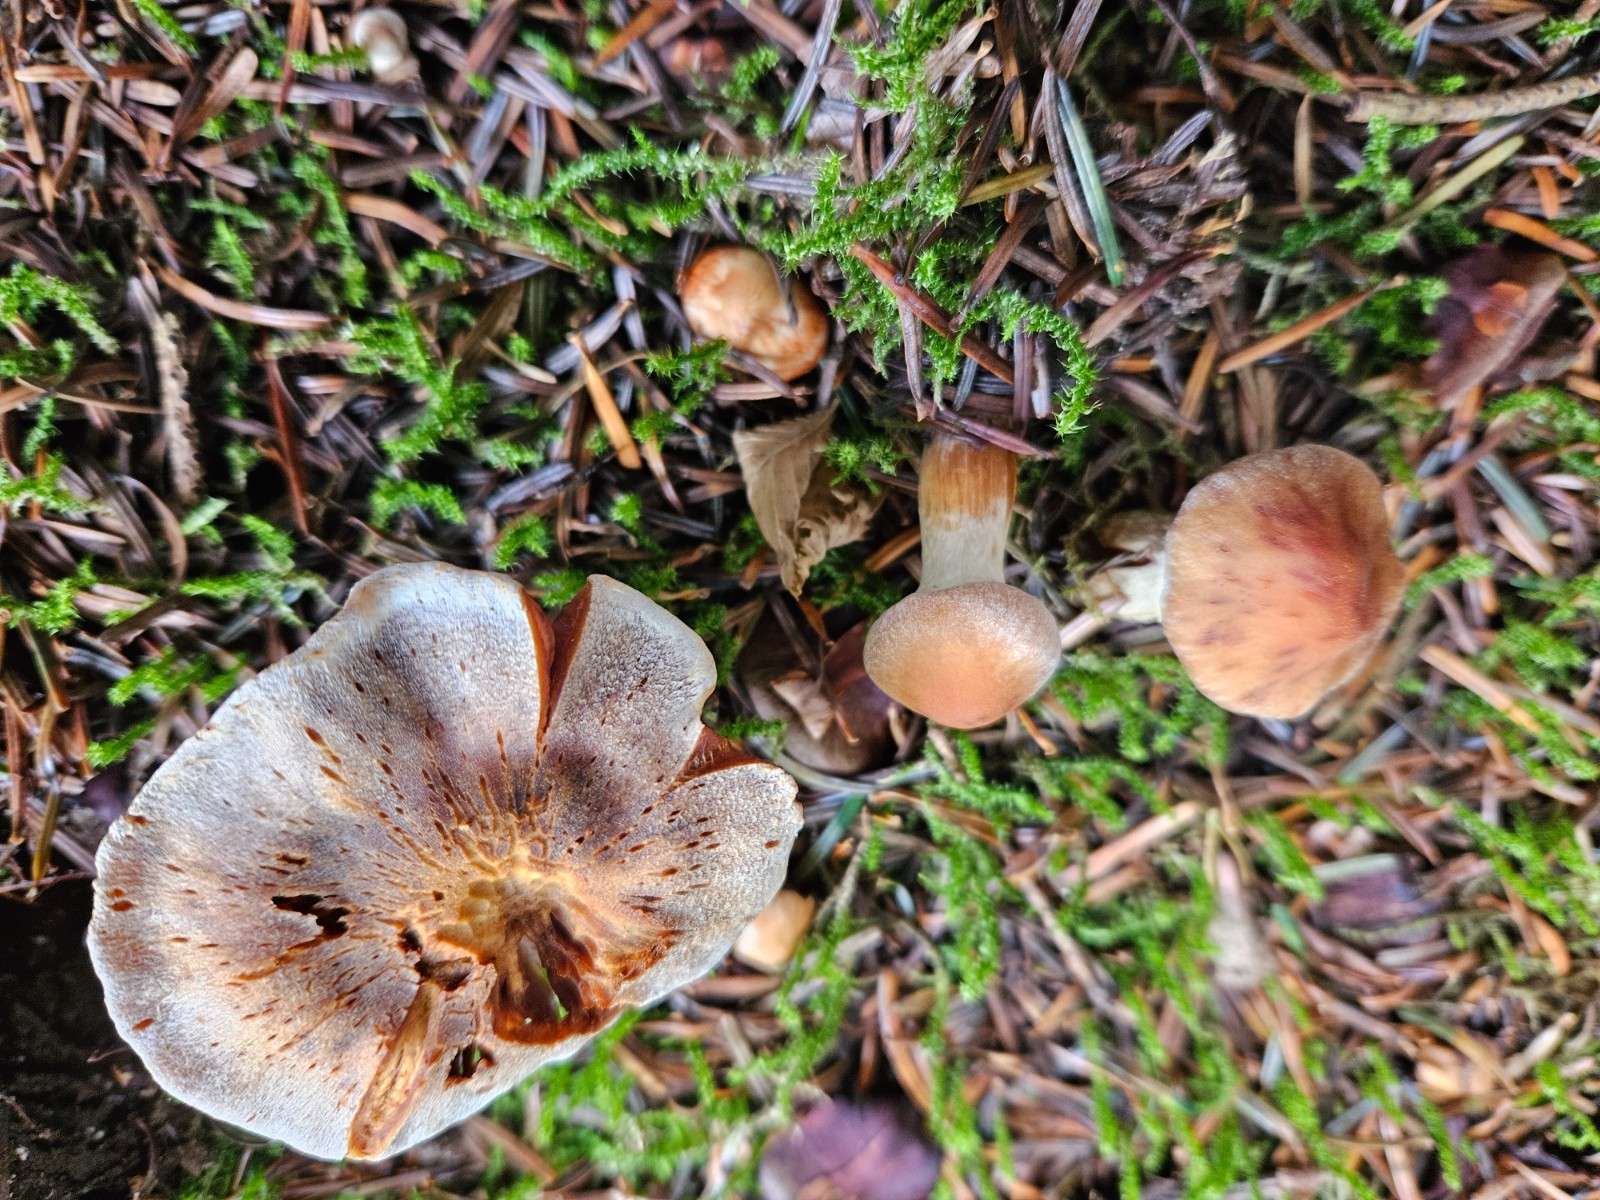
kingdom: Fungi
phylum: Basidiomycota
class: Agaricomycetes
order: Agaricales
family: Cortinariaceae
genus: Cortinarius
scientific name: Cortinarius
